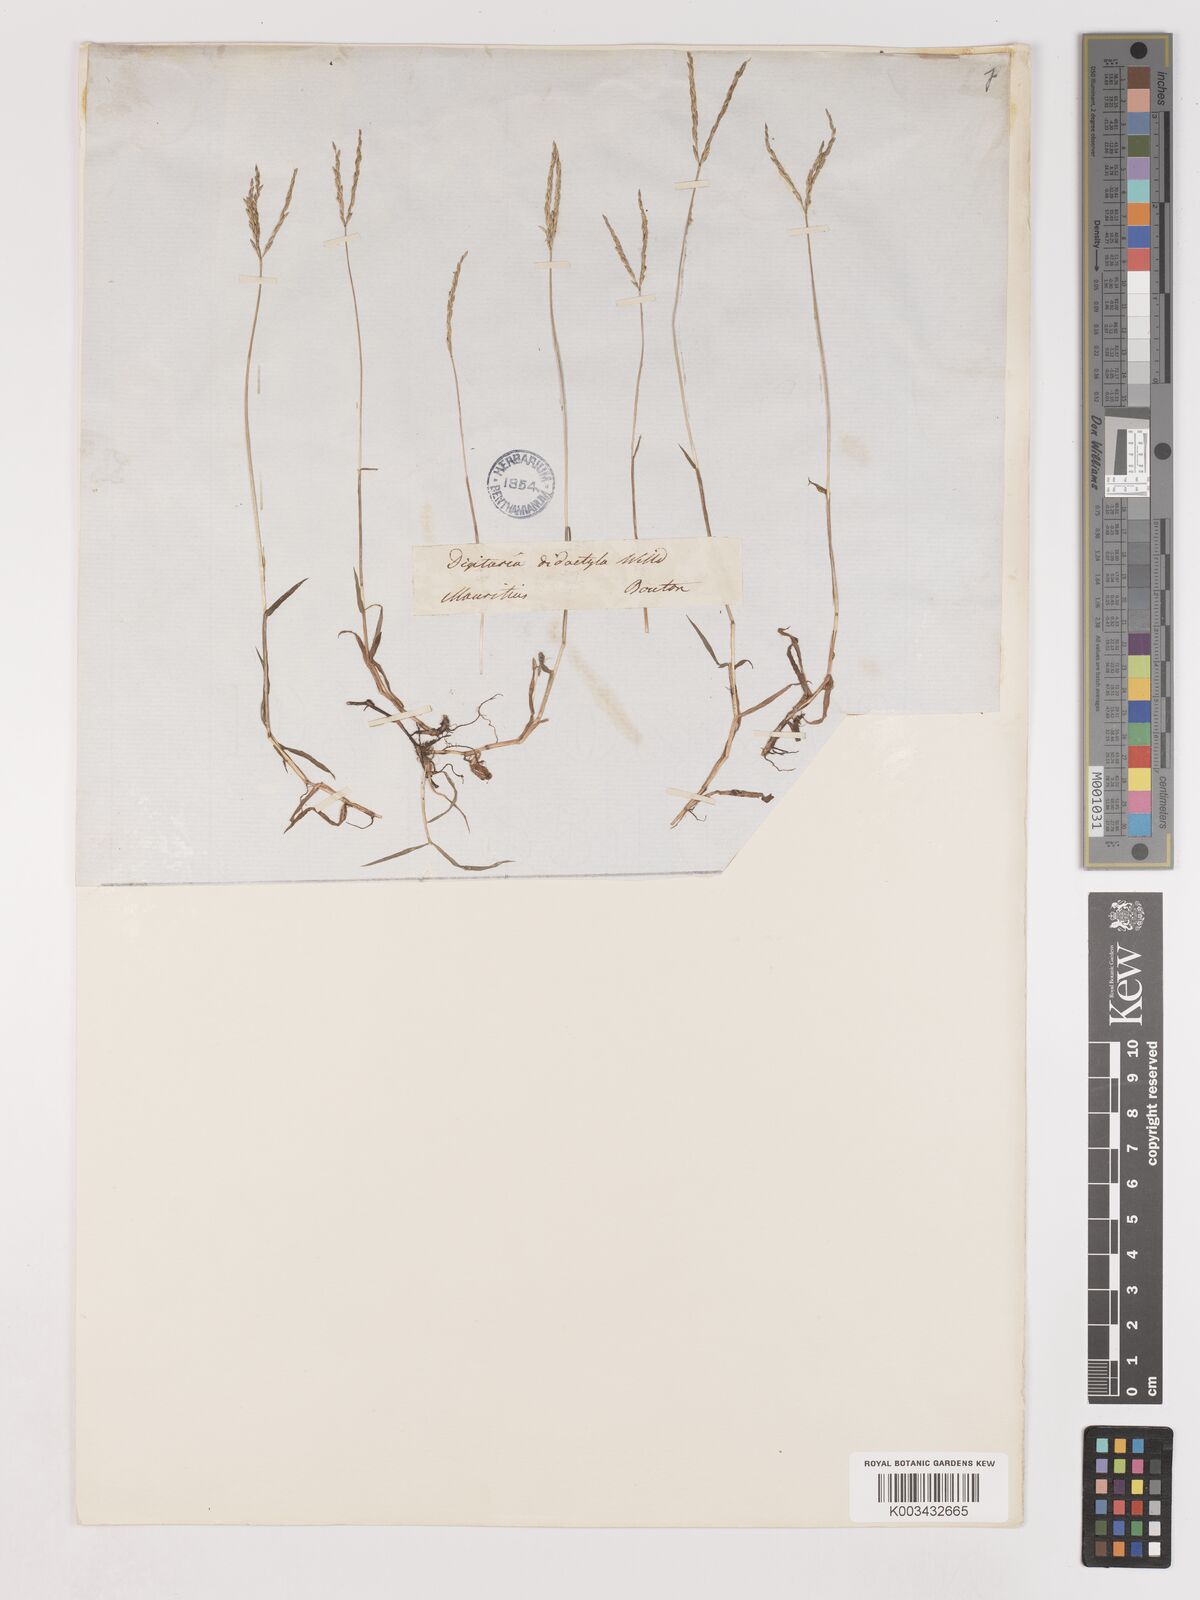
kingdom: Plantae
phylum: Tracheophyta
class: Liliopsida
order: Poales
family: Poaceae
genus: Digitaria
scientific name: Digitaria didactyla
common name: Blue couch
